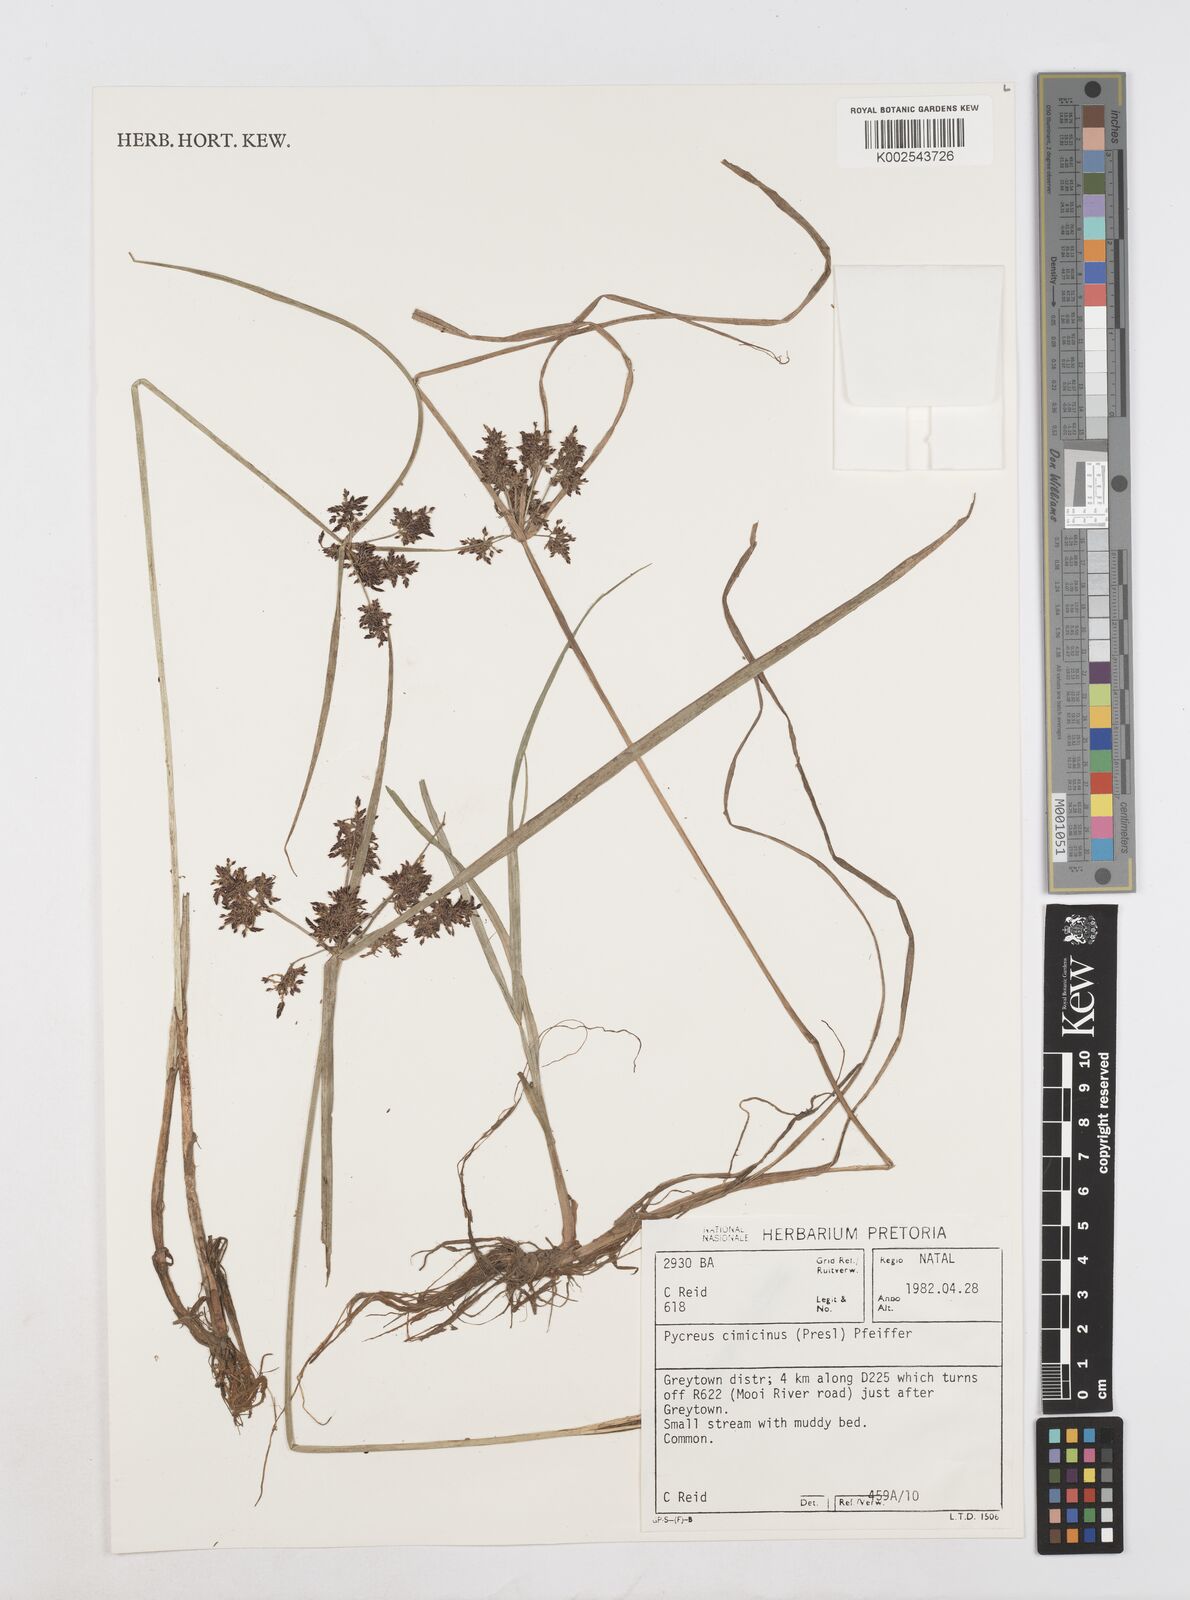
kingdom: Plantae
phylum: Tracheophyta
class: Liliopsida
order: Poales
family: Cyperaceae
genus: Cyperus
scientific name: Cyperus elegantulus
